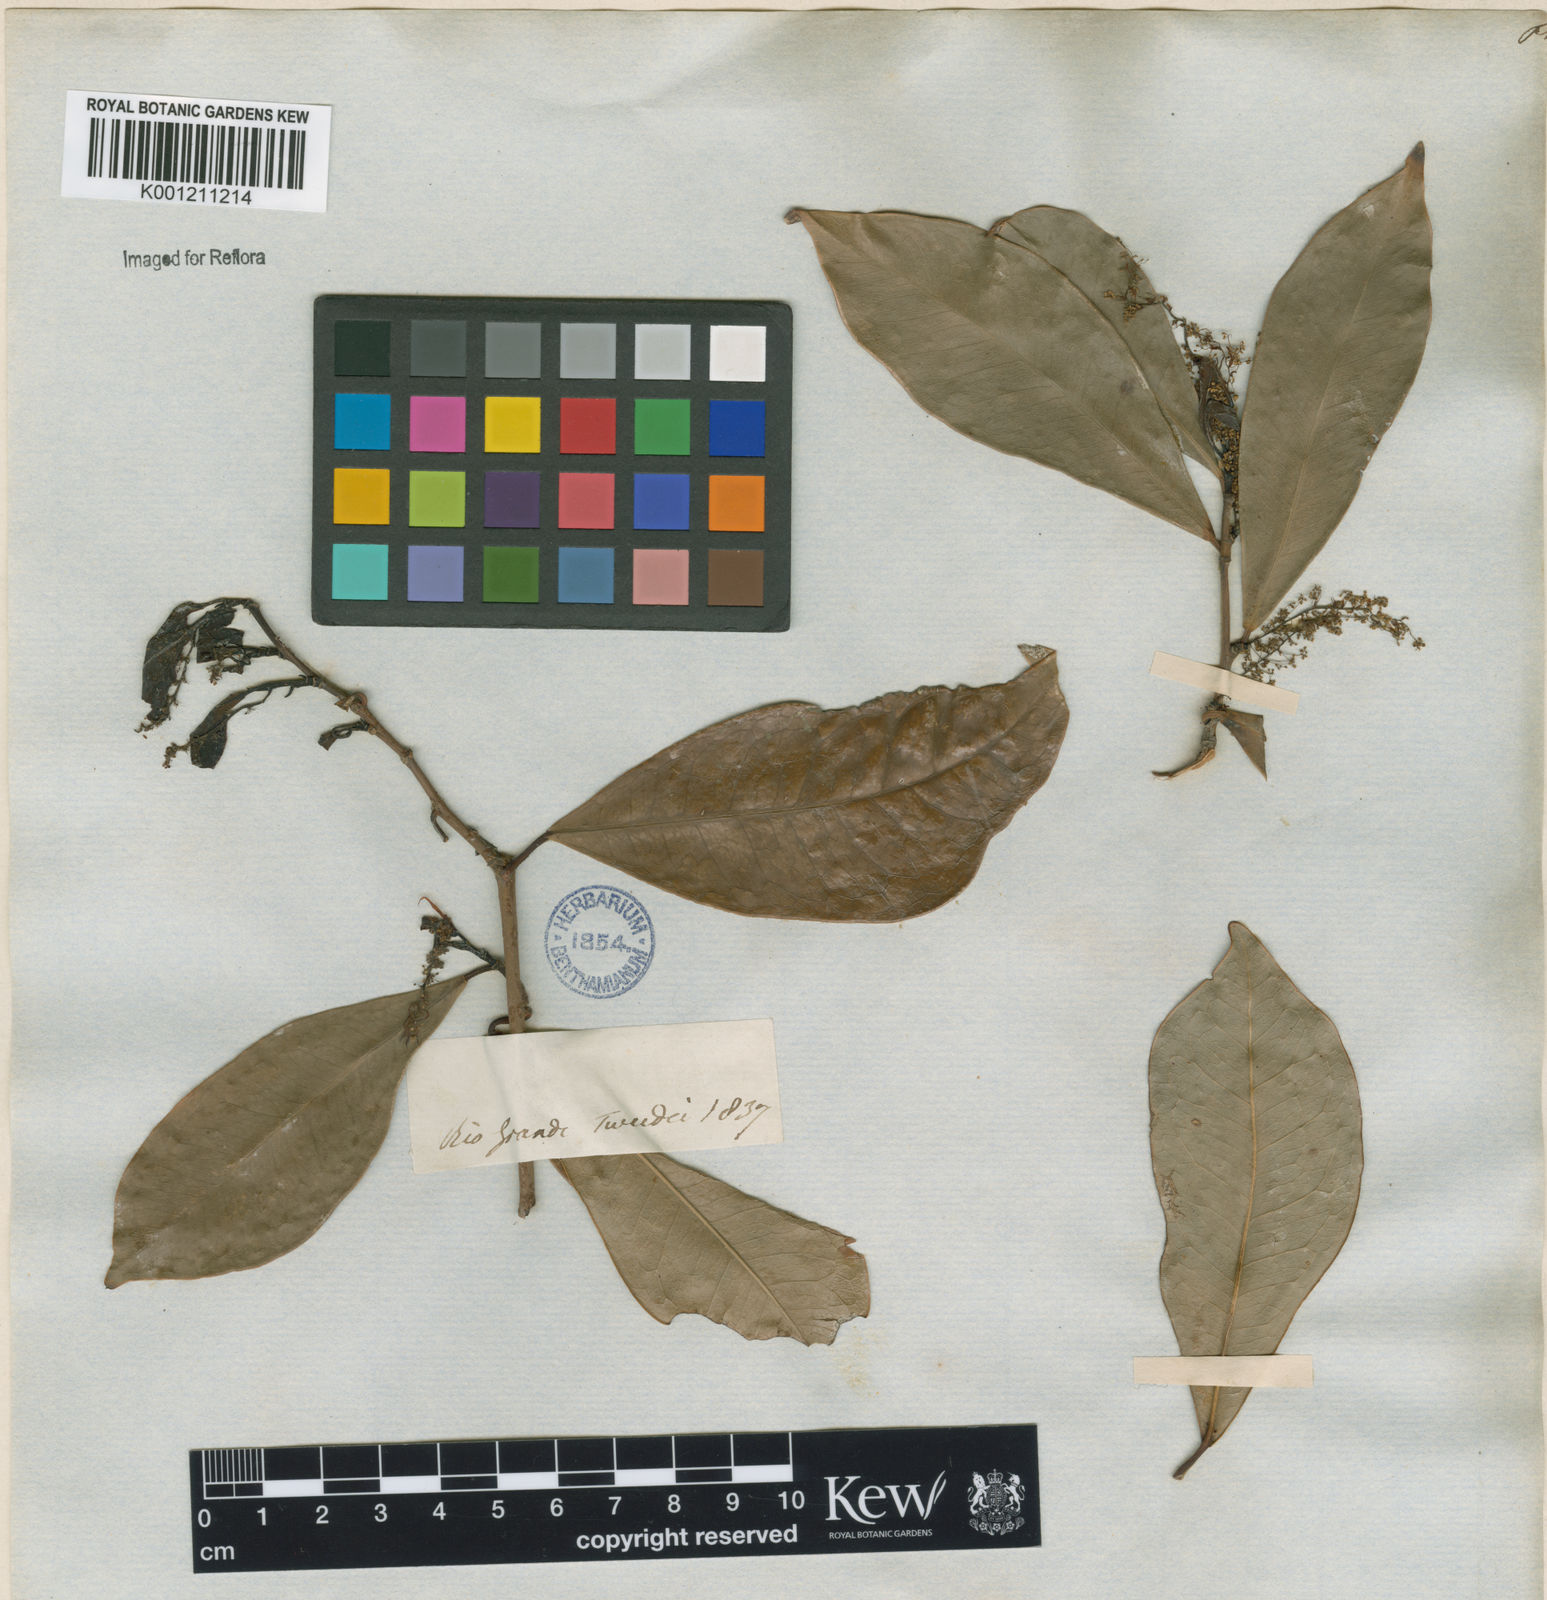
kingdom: Plantae
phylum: Tracheophyta
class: Magnoliopsida
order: Malpighiales
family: Euphorbiaceae
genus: Actinostemon
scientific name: Actinostemon
